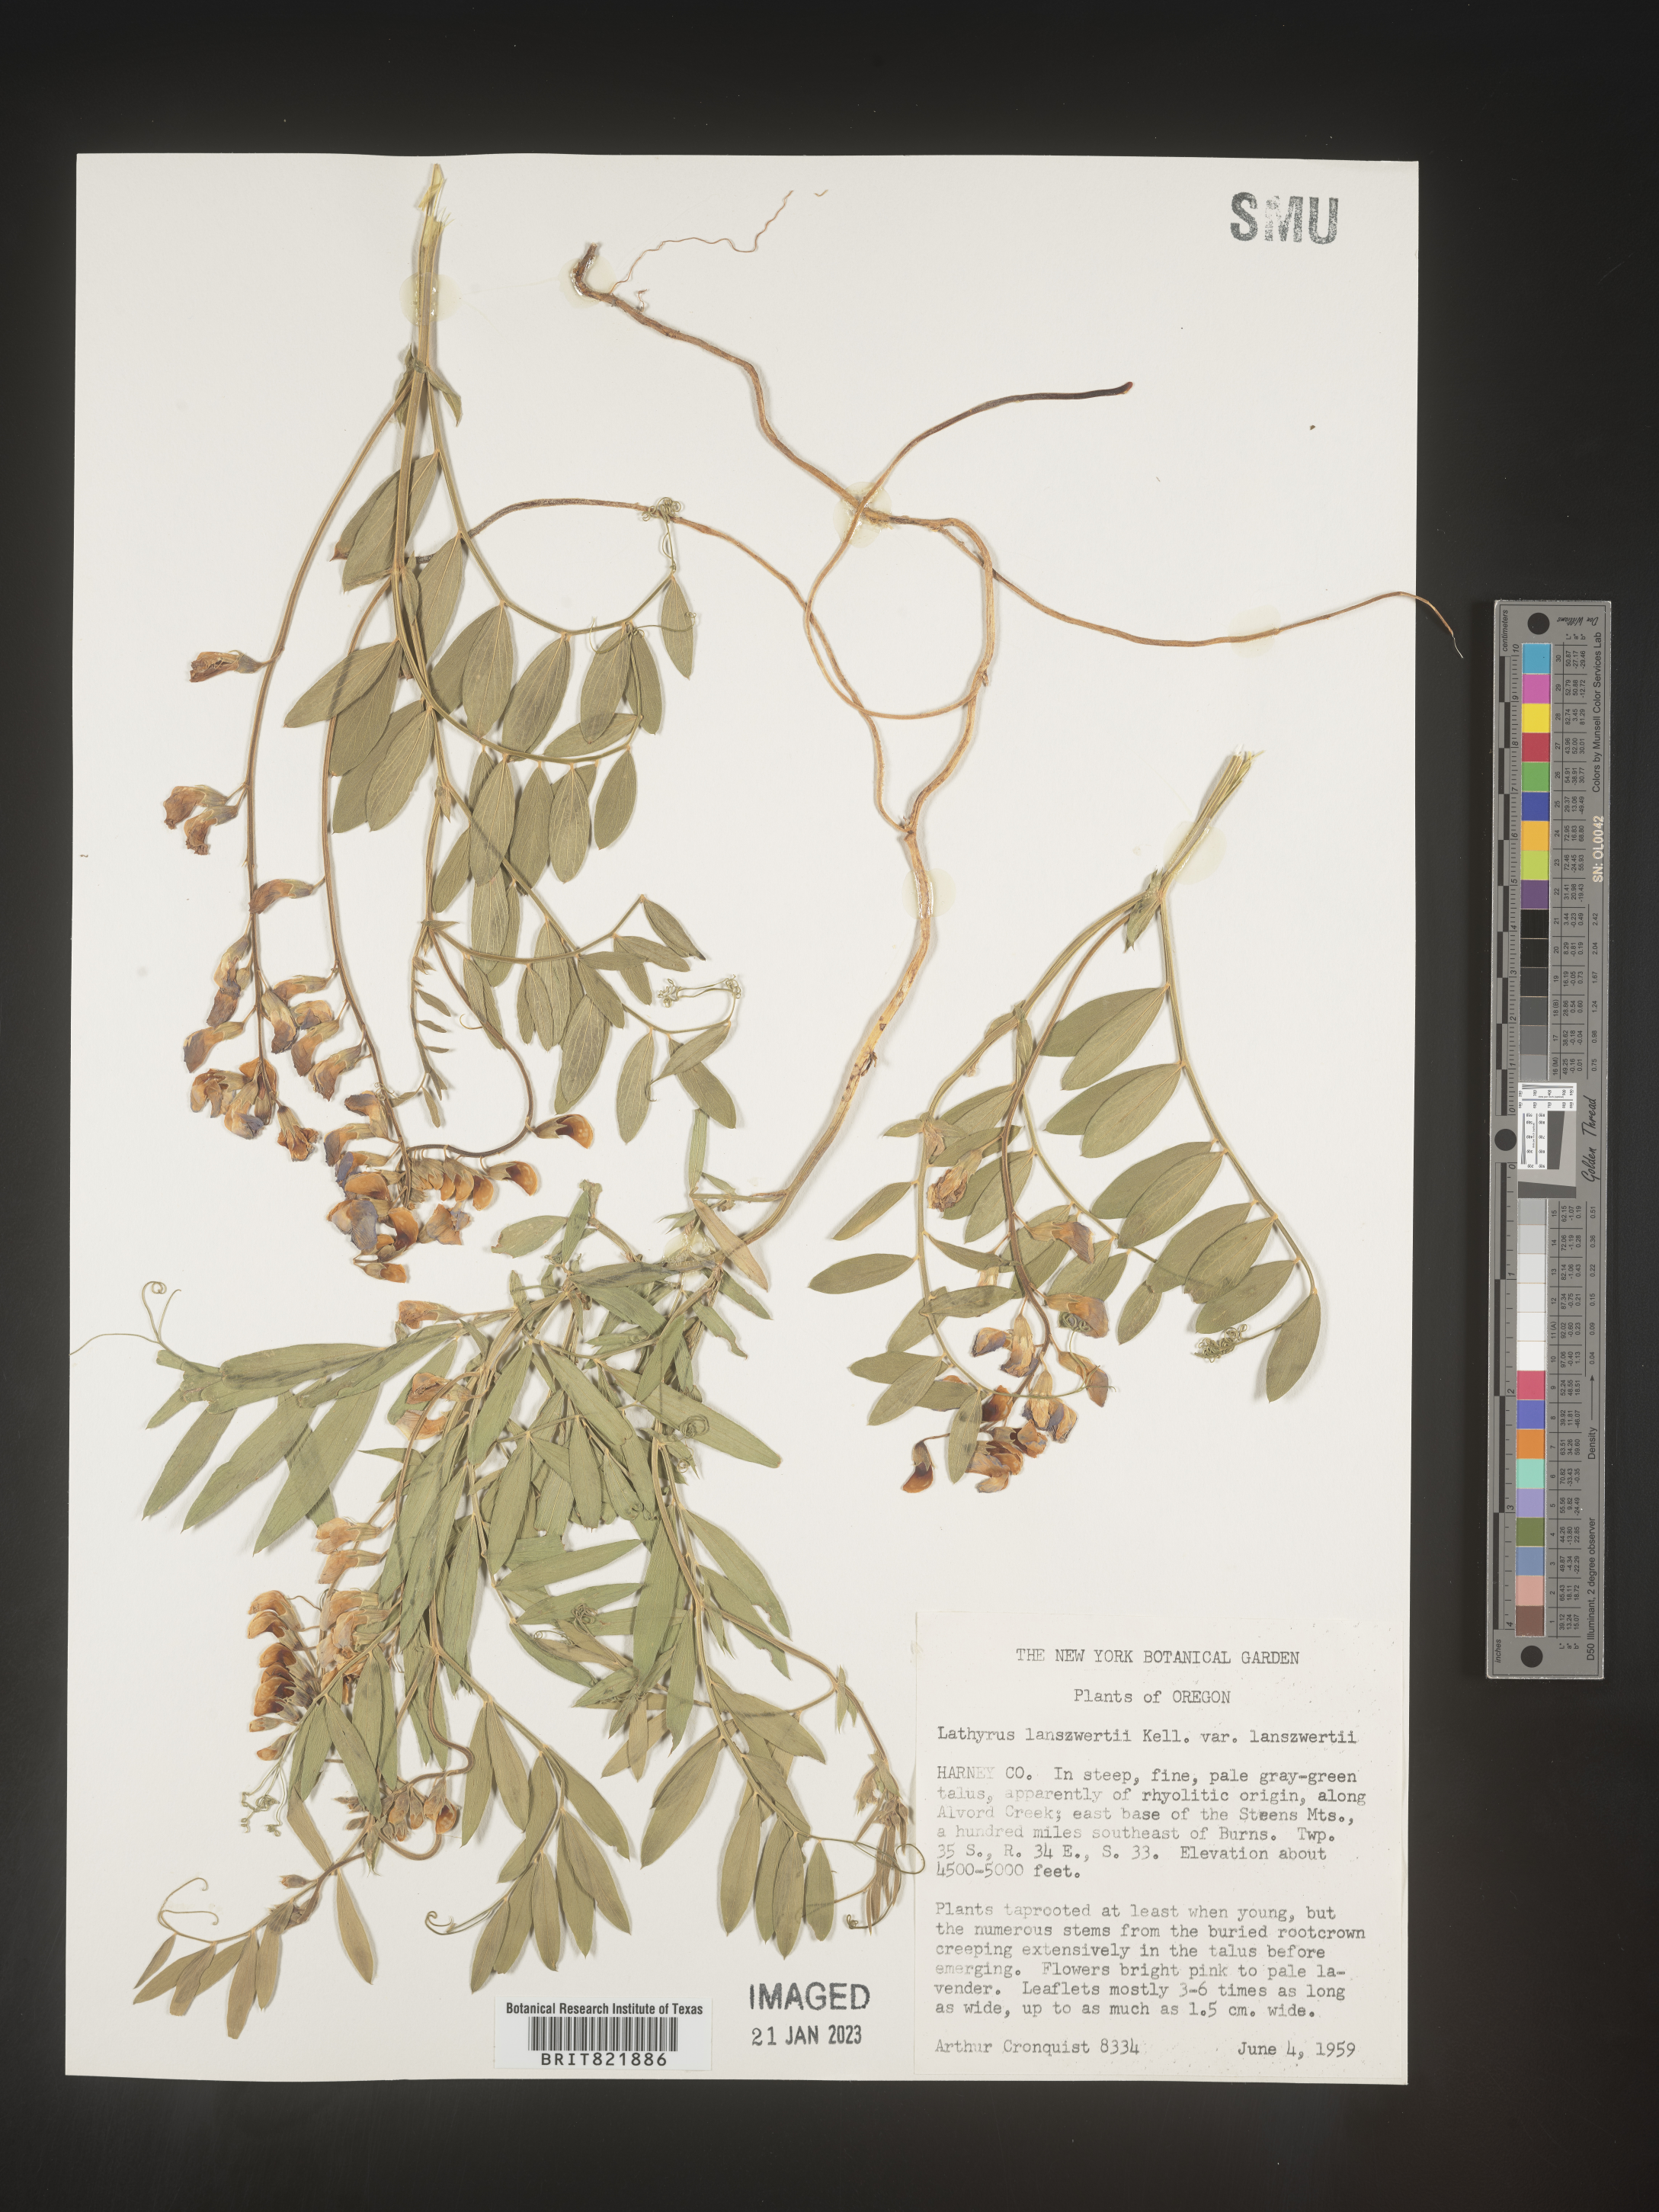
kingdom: Plantae
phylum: Tracheophyta
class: Magnoliopsida
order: Fabales
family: Fabaceae
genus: Lathyrus
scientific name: Lathyrus
